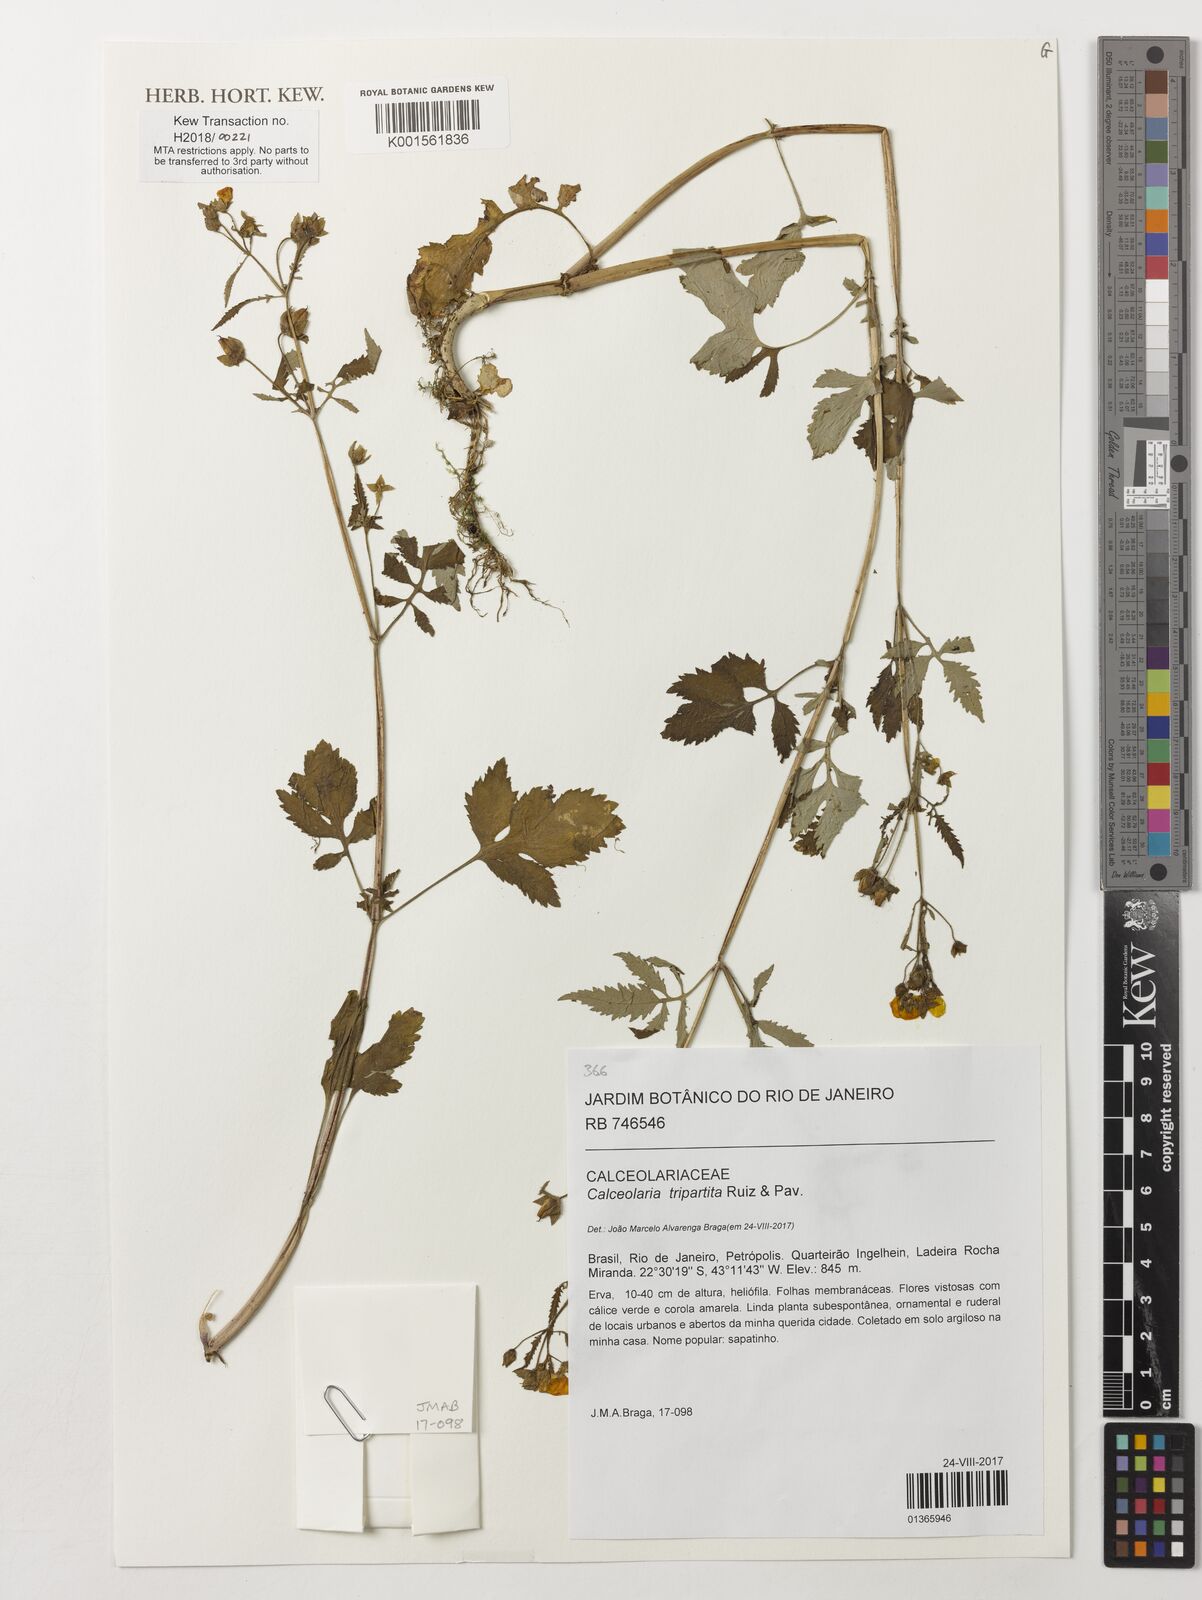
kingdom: Plantae
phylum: Tracheophyta
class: Magnoliopsida
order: Lamiales
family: Calceolariaceae
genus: Calceolaria
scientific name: Calceolaria tripartita
